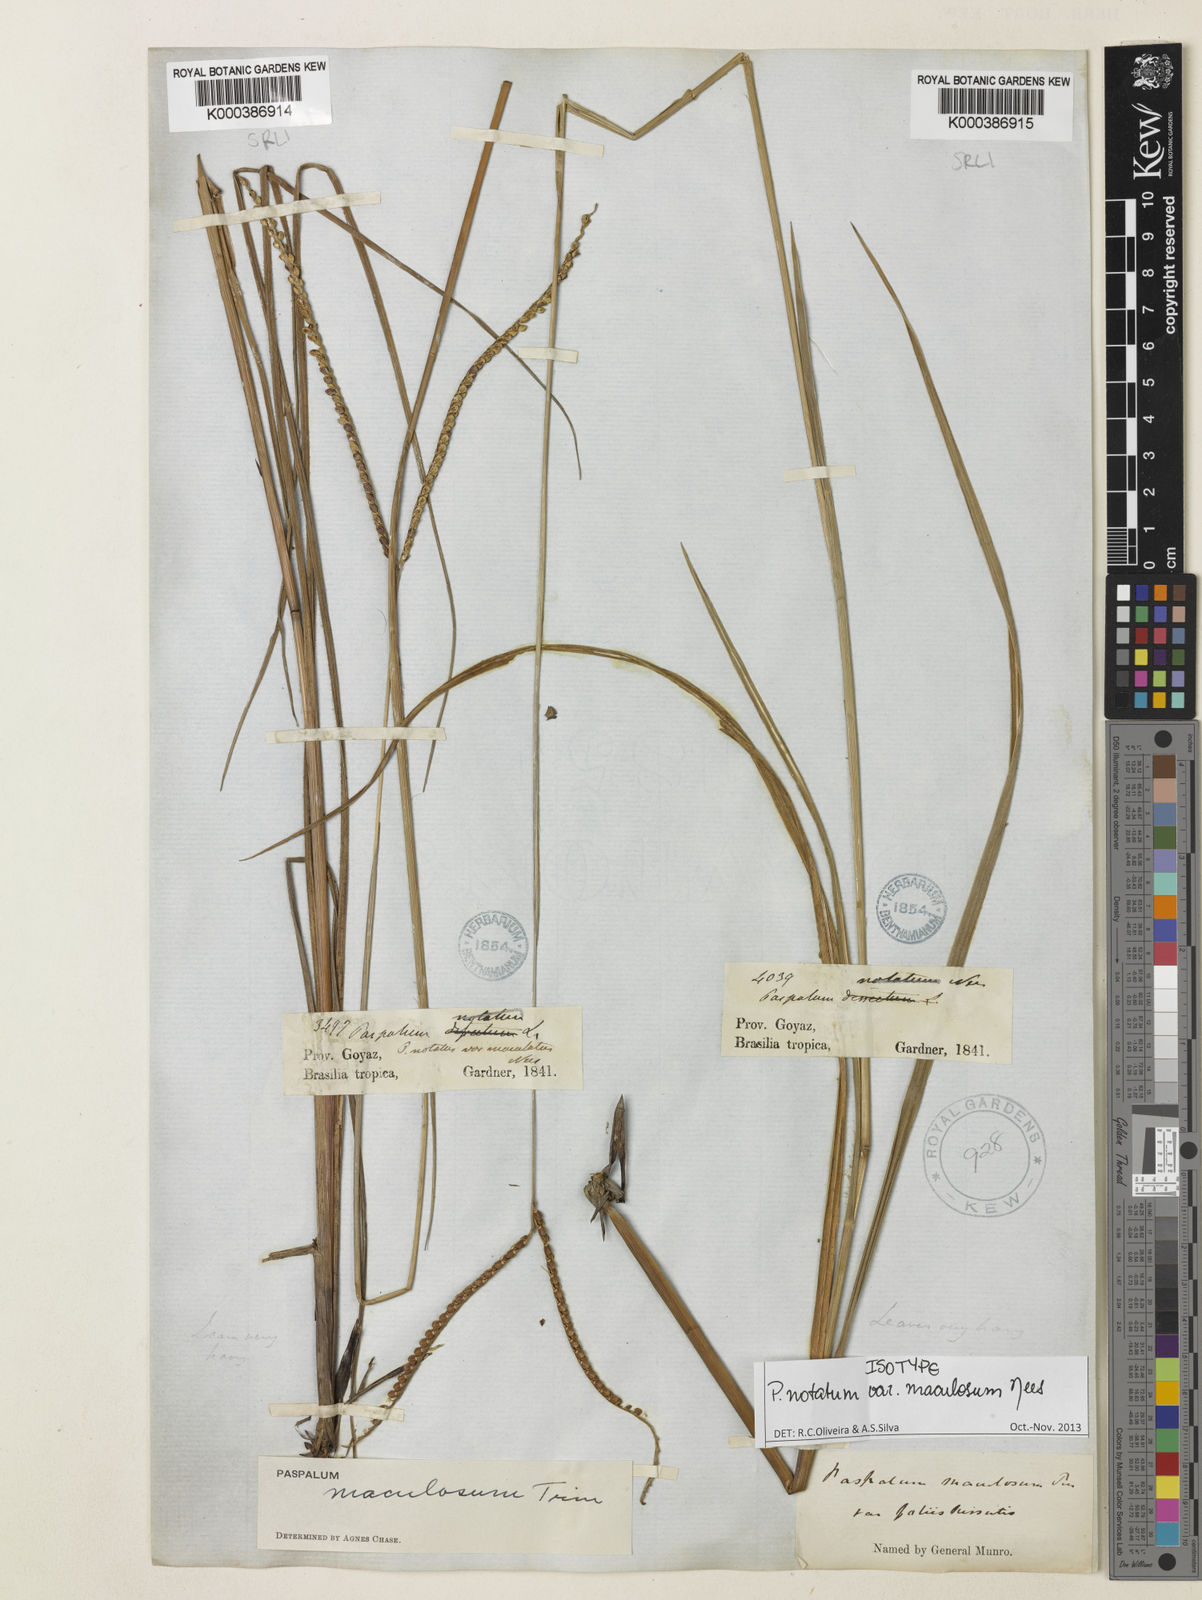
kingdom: Plantae
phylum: Tracheophyta
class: Liliopsida
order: Poales
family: Poaceae
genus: Paspalum
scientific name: Paspalum maculosum
